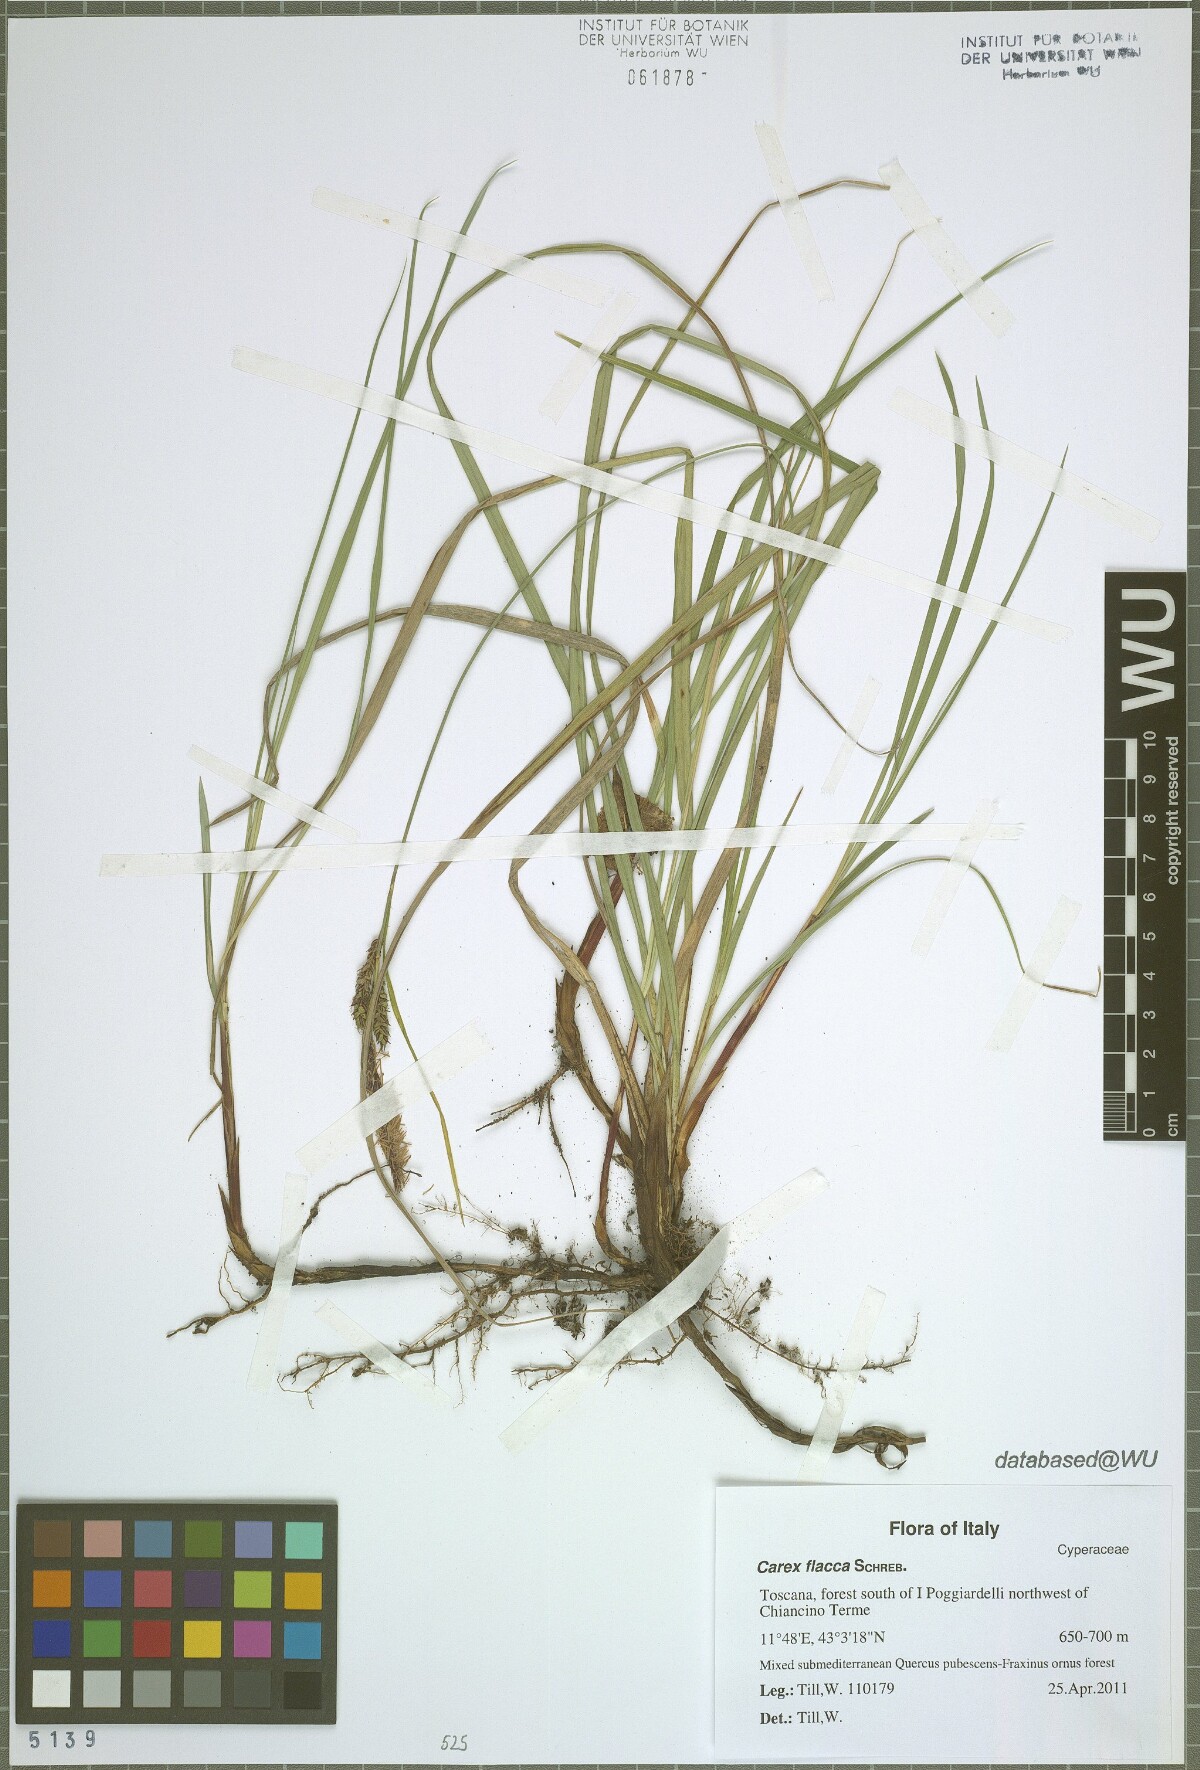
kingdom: Plantae
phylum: Tracheophyta
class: Liliopsida
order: Poales
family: Cyperaceae
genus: Carex
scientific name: Carex flacca
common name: Glaucous sedge
